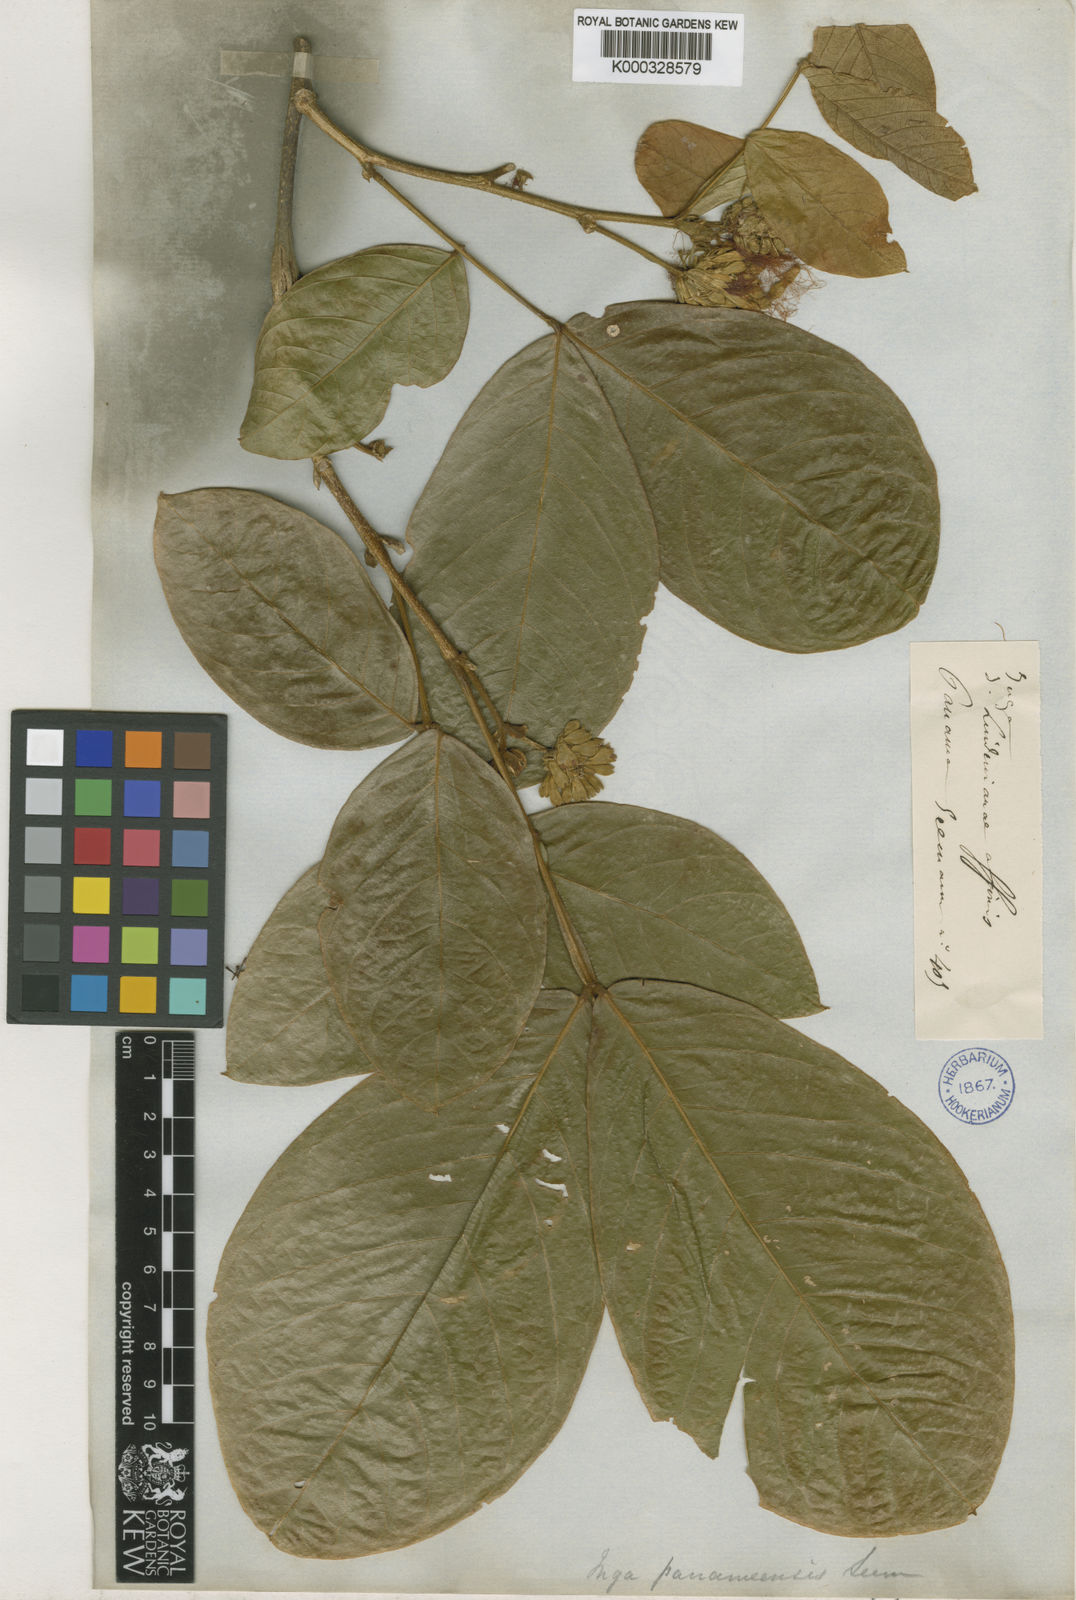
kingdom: Plantae
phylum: Tracheophyta
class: Magnoliopsida
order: Fabales
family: Fabaceae
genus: Inga
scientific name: Inga sapindoides
